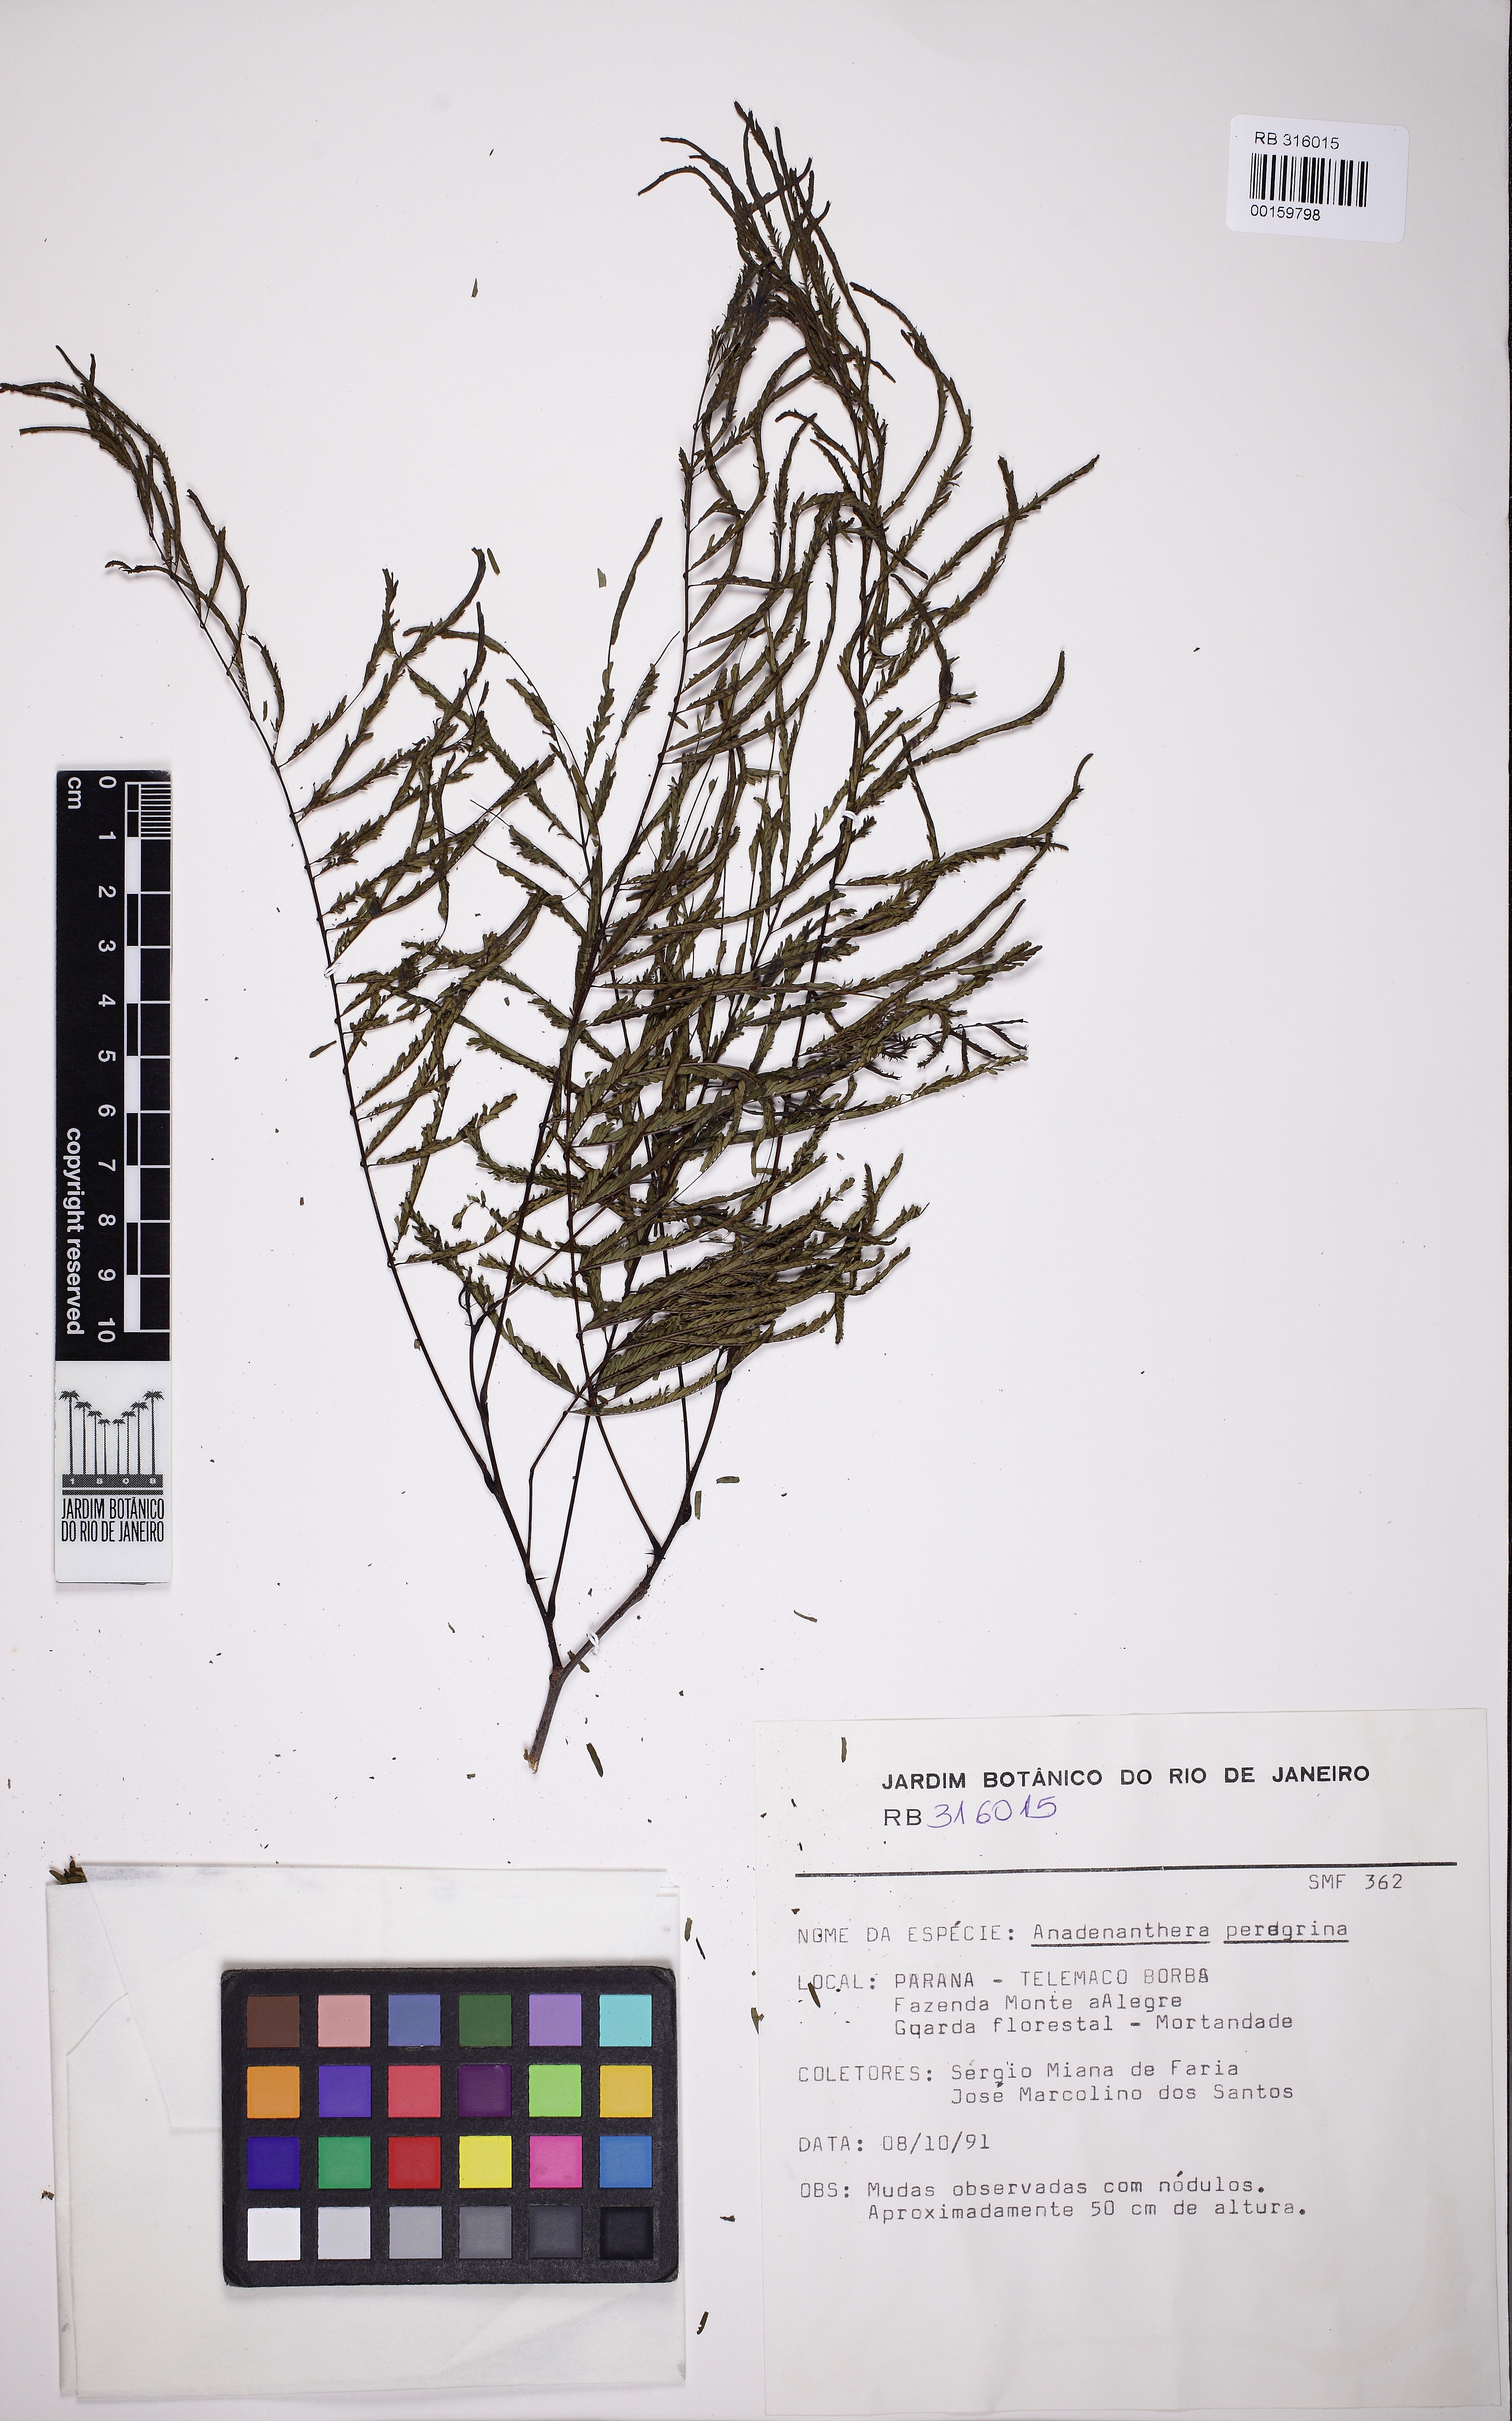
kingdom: Plantae
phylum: Tracheophyta
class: Magnoliopsida
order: Fabales
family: Fabaceae
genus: Anadenanthera
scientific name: Anadenanthera peregrina
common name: Cohoba
